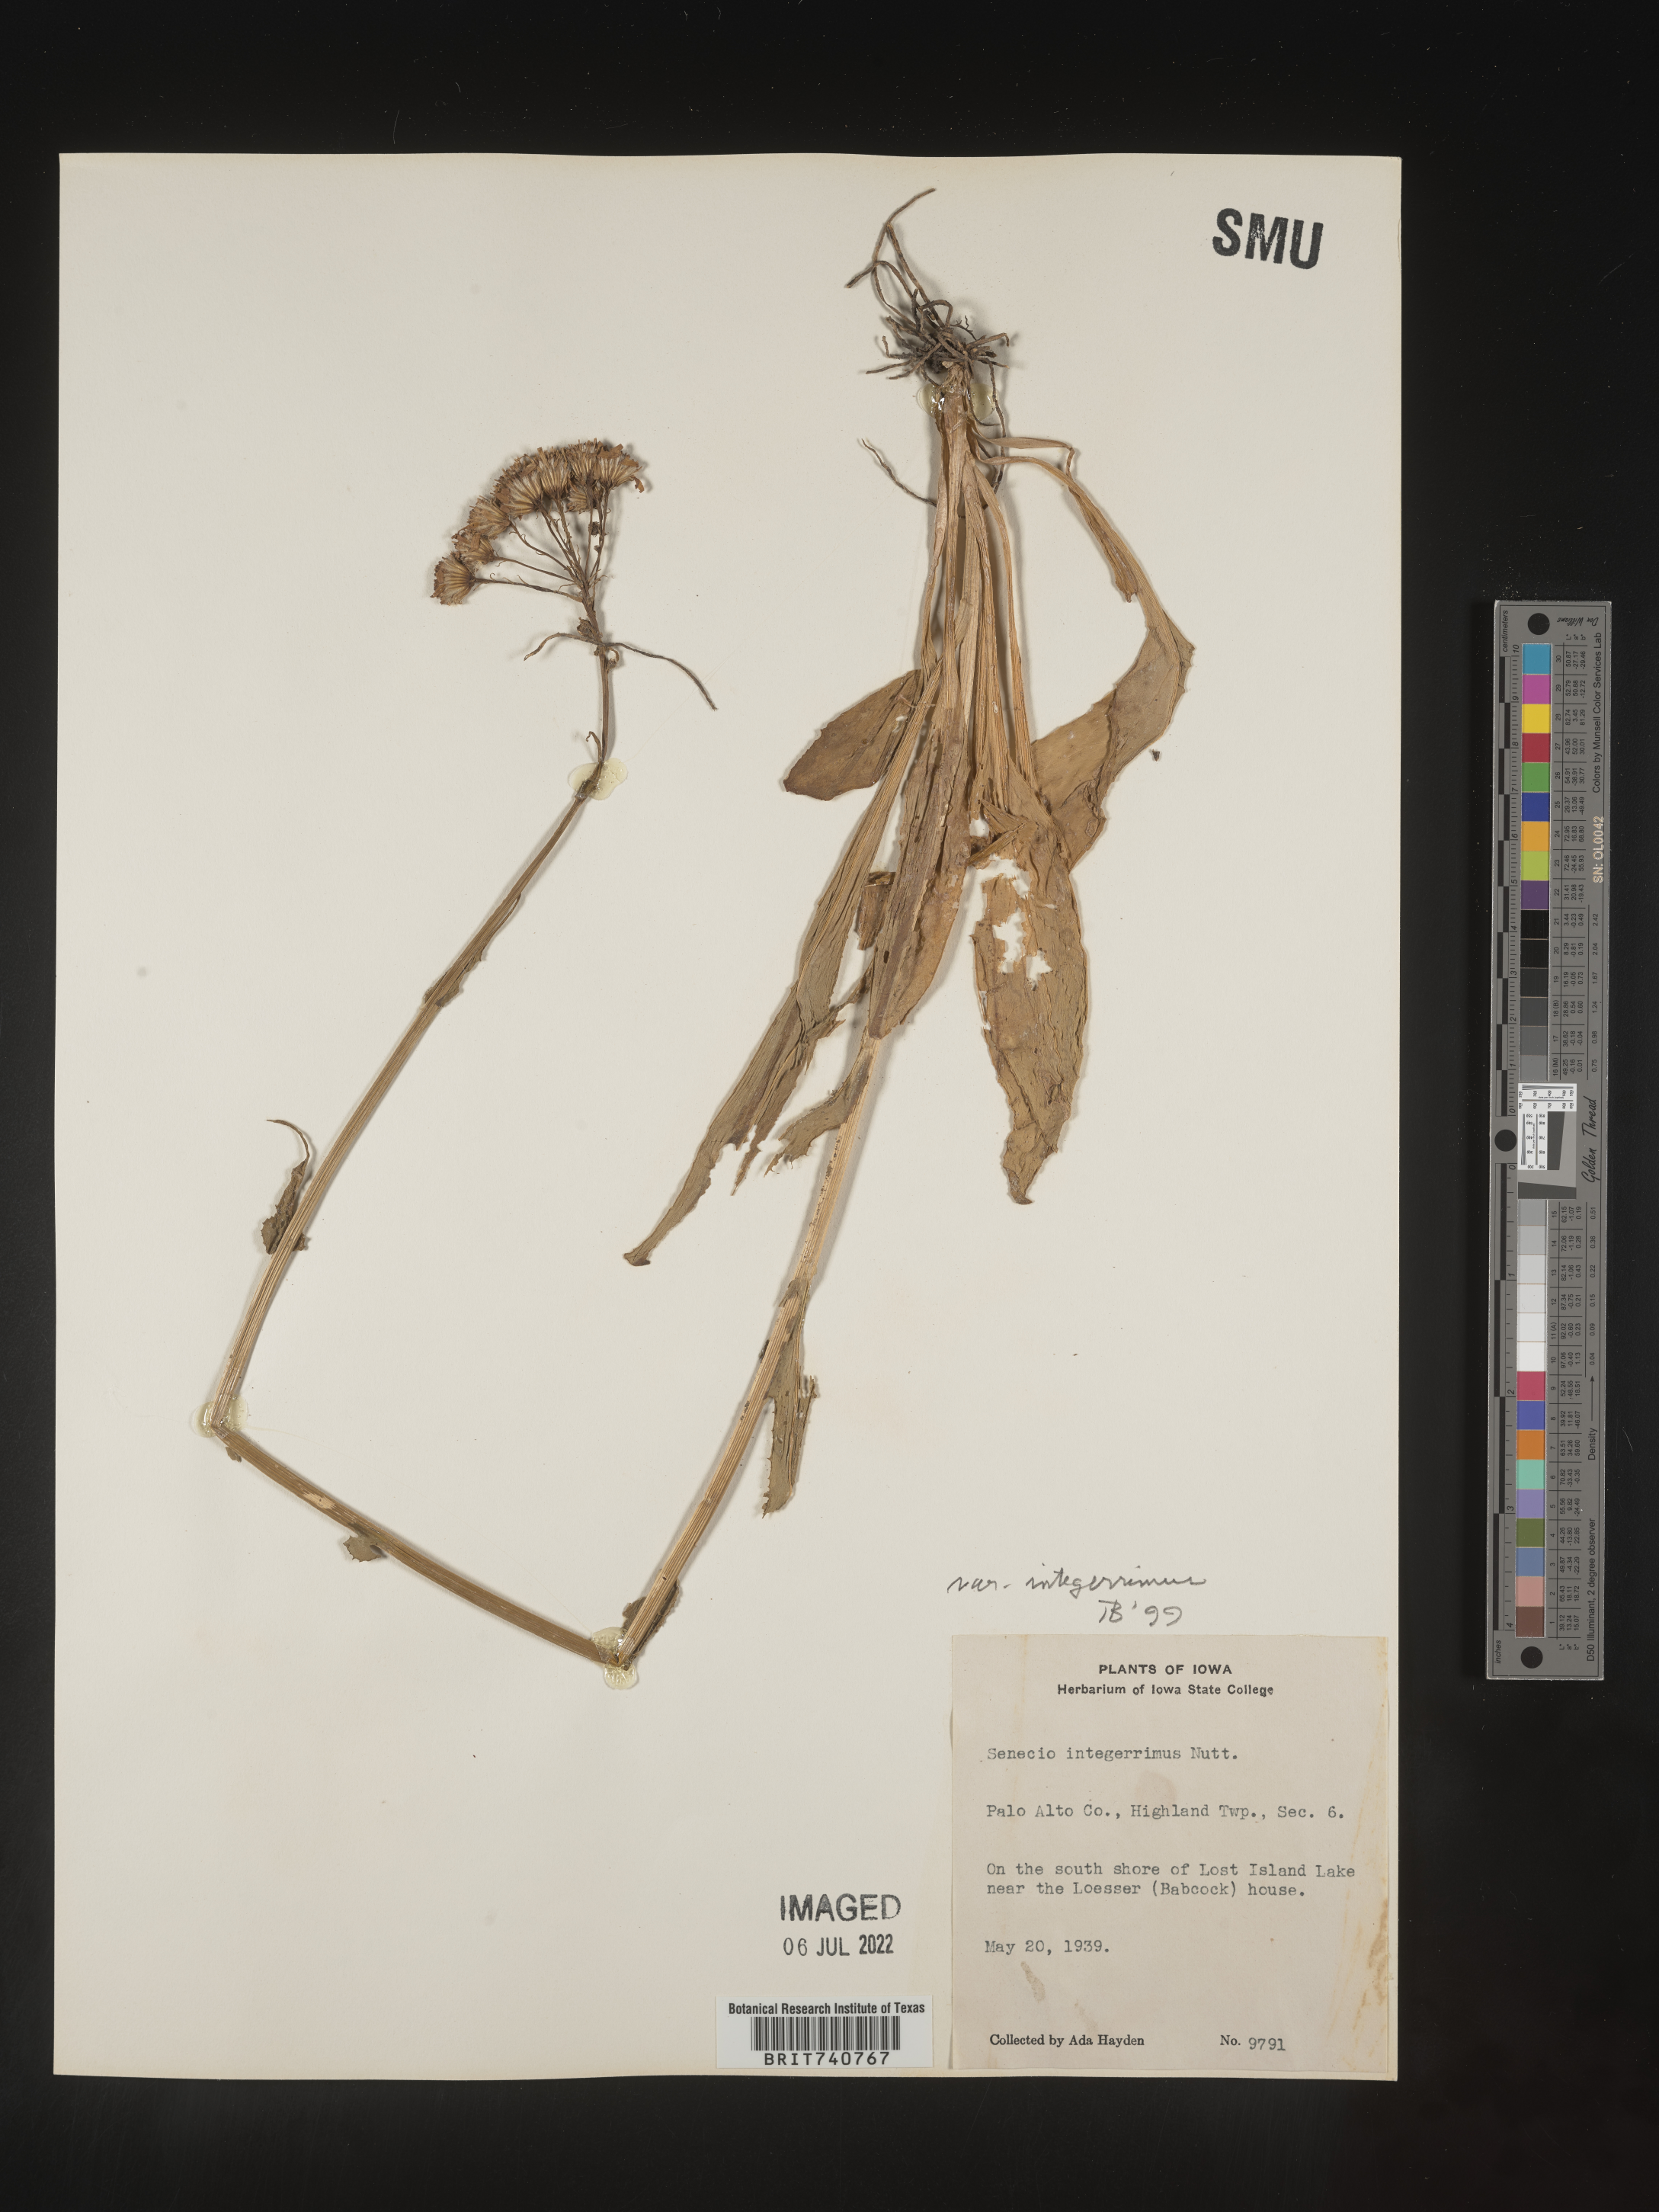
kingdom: Plantae
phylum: Tracheophyta
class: Magnoliopsida
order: Asterales
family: Asteraceae
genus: Senecio
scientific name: Senecio integerrimus
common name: Gaugeplant
